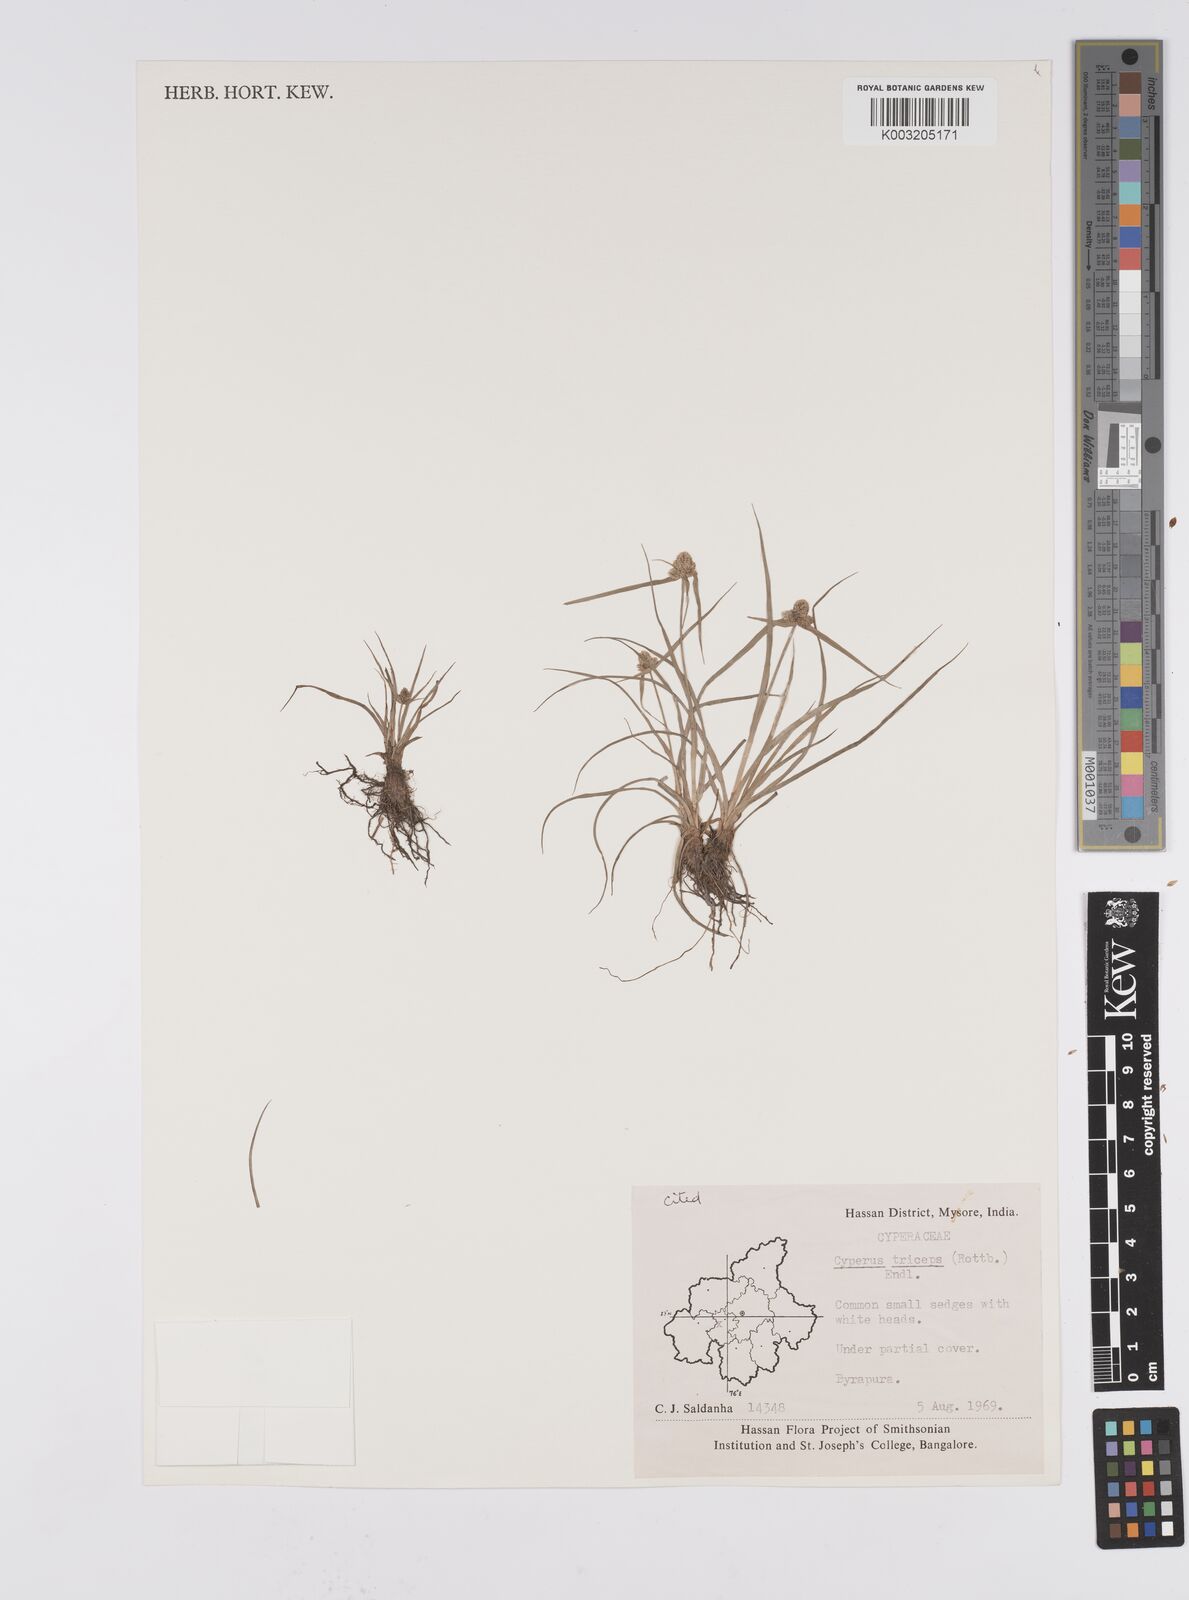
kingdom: Plantae
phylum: Tracheophyta
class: Liliopsida
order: Poales
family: Cyperaceae
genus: Cyperus
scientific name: Cyperus
